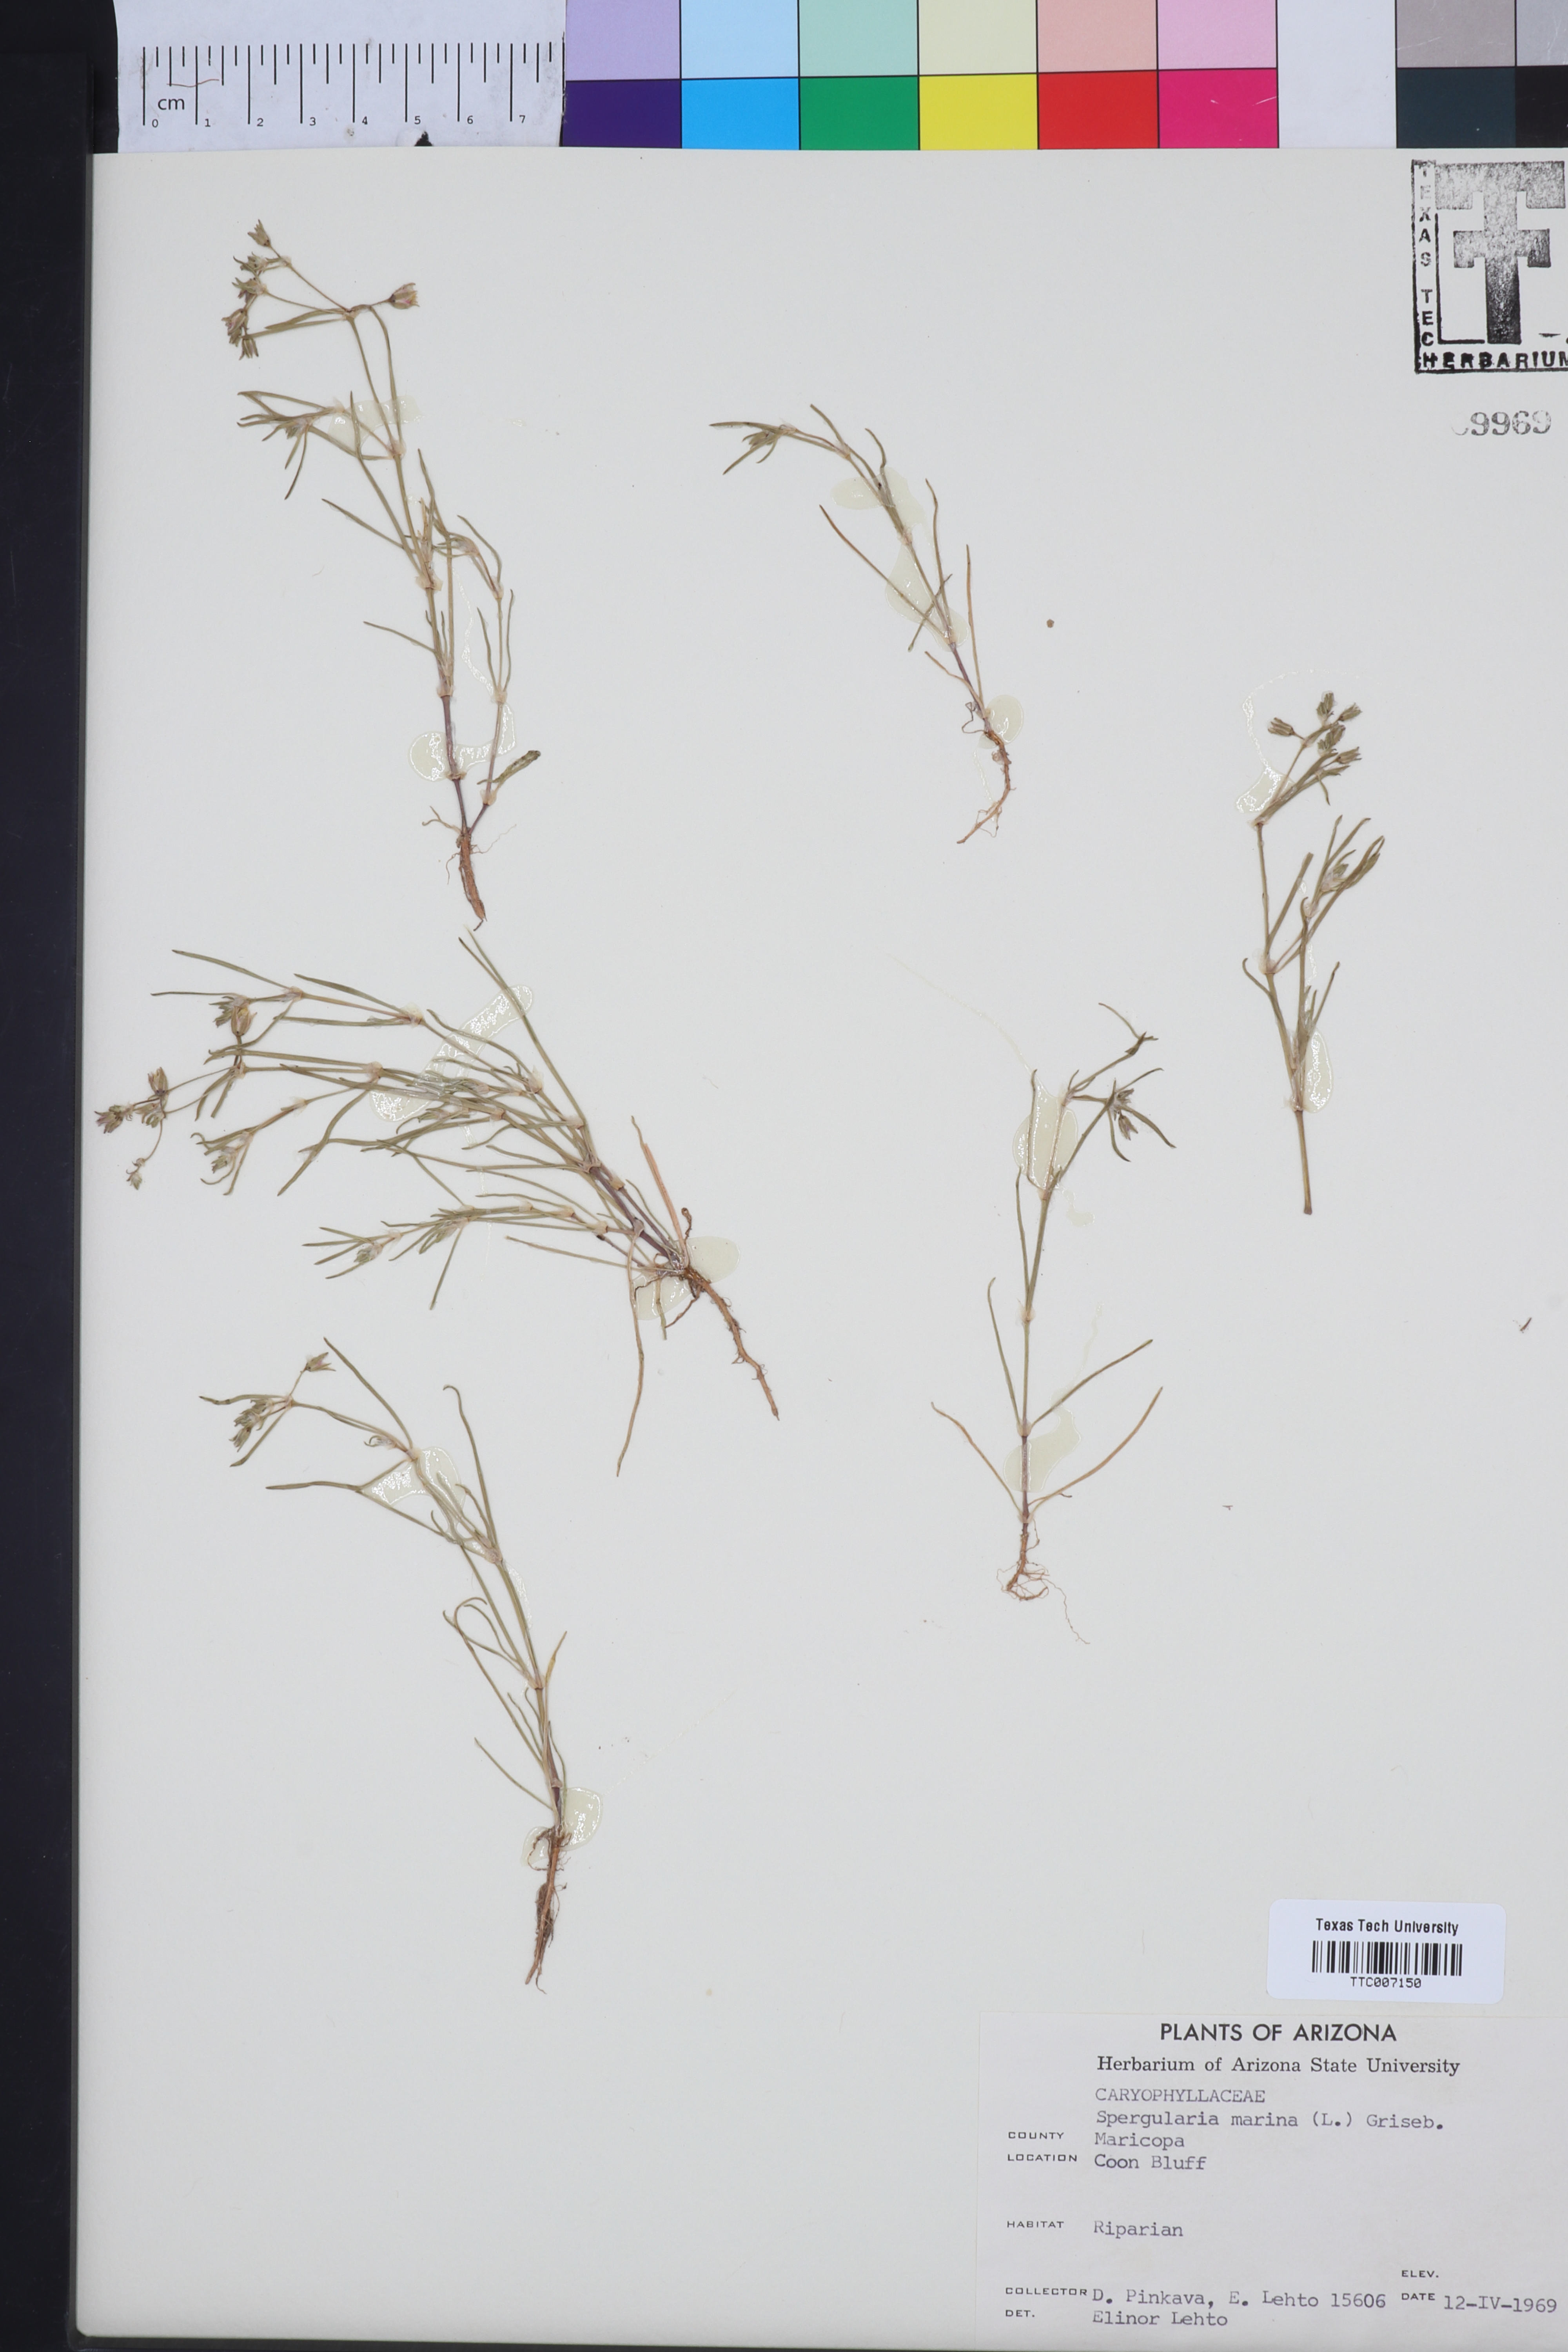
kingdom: Plantae
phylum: Tracheophyta
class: Magnoliopsida
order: Caryophyllales
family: Caryophyllaceae
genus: Spergularia
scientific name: Spergularia marina
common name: Lesser sea-spurrey
